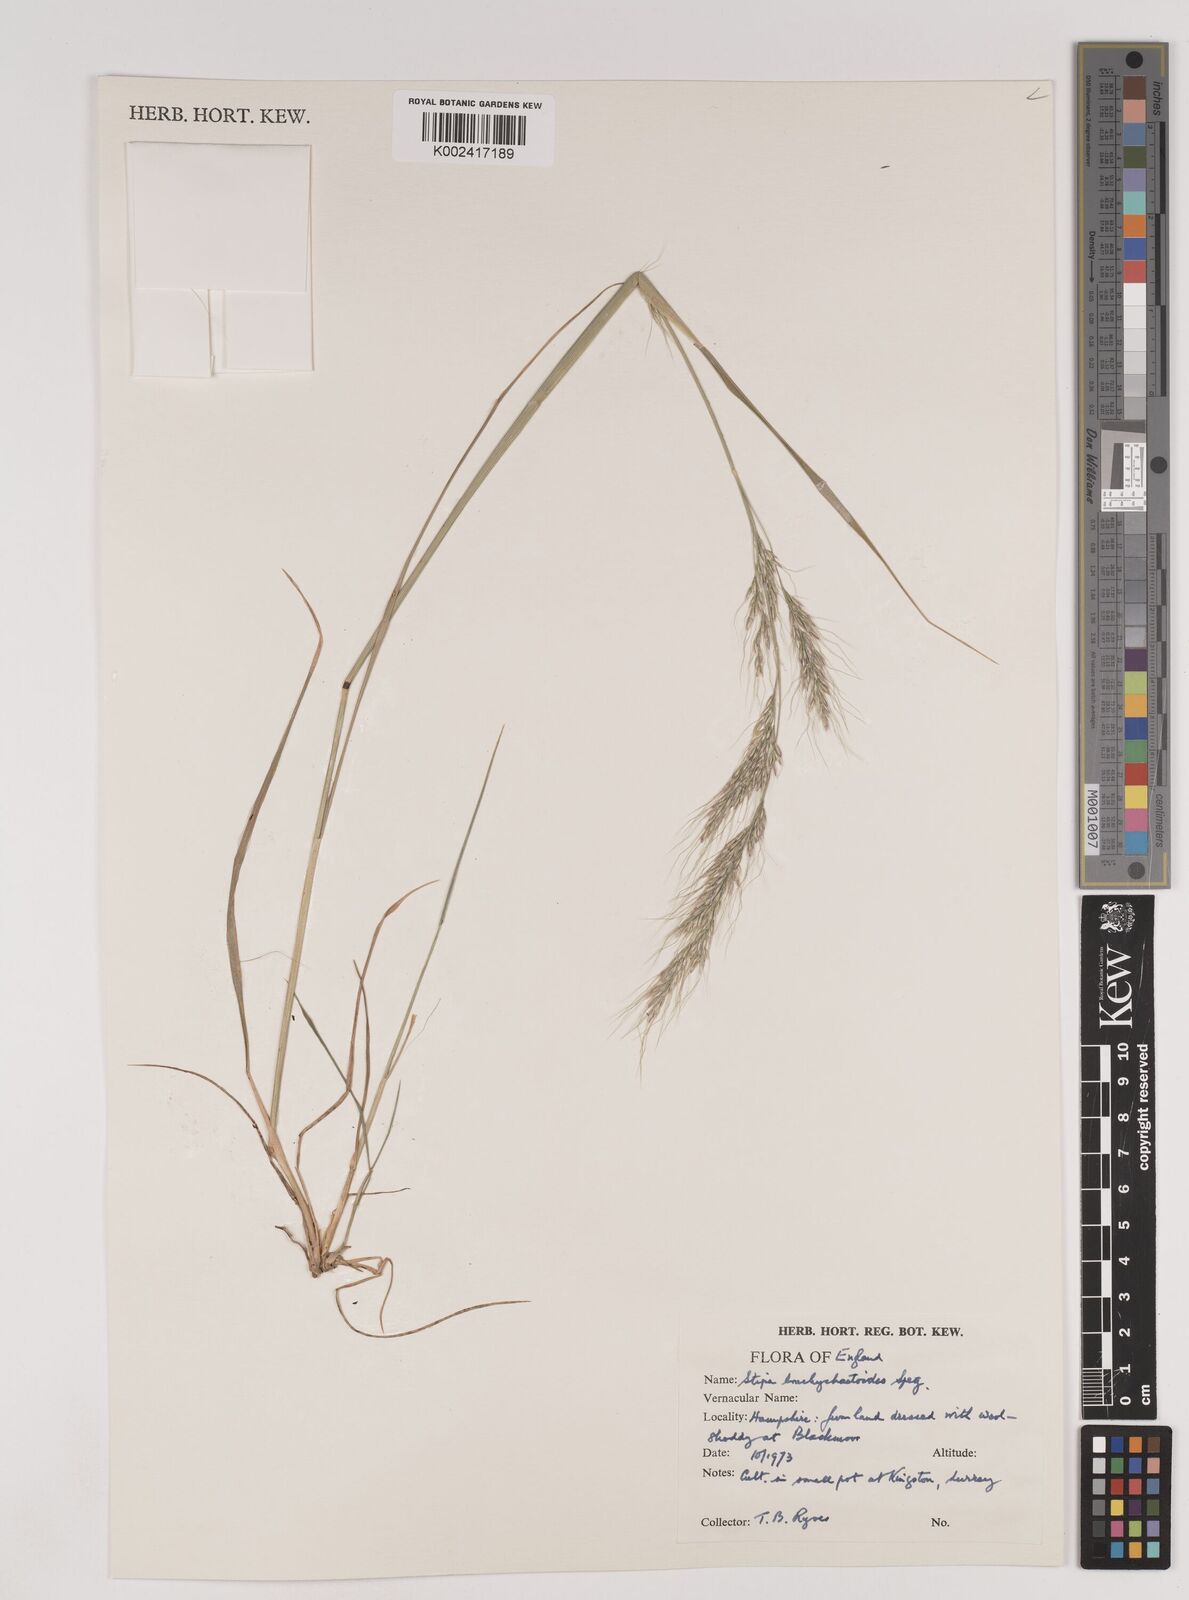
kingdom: Plantae
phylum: Tracheophyta
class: Liliopsida
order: Poales
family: Poaceae
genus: Nassella
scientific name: Nassella brachychaetoides
